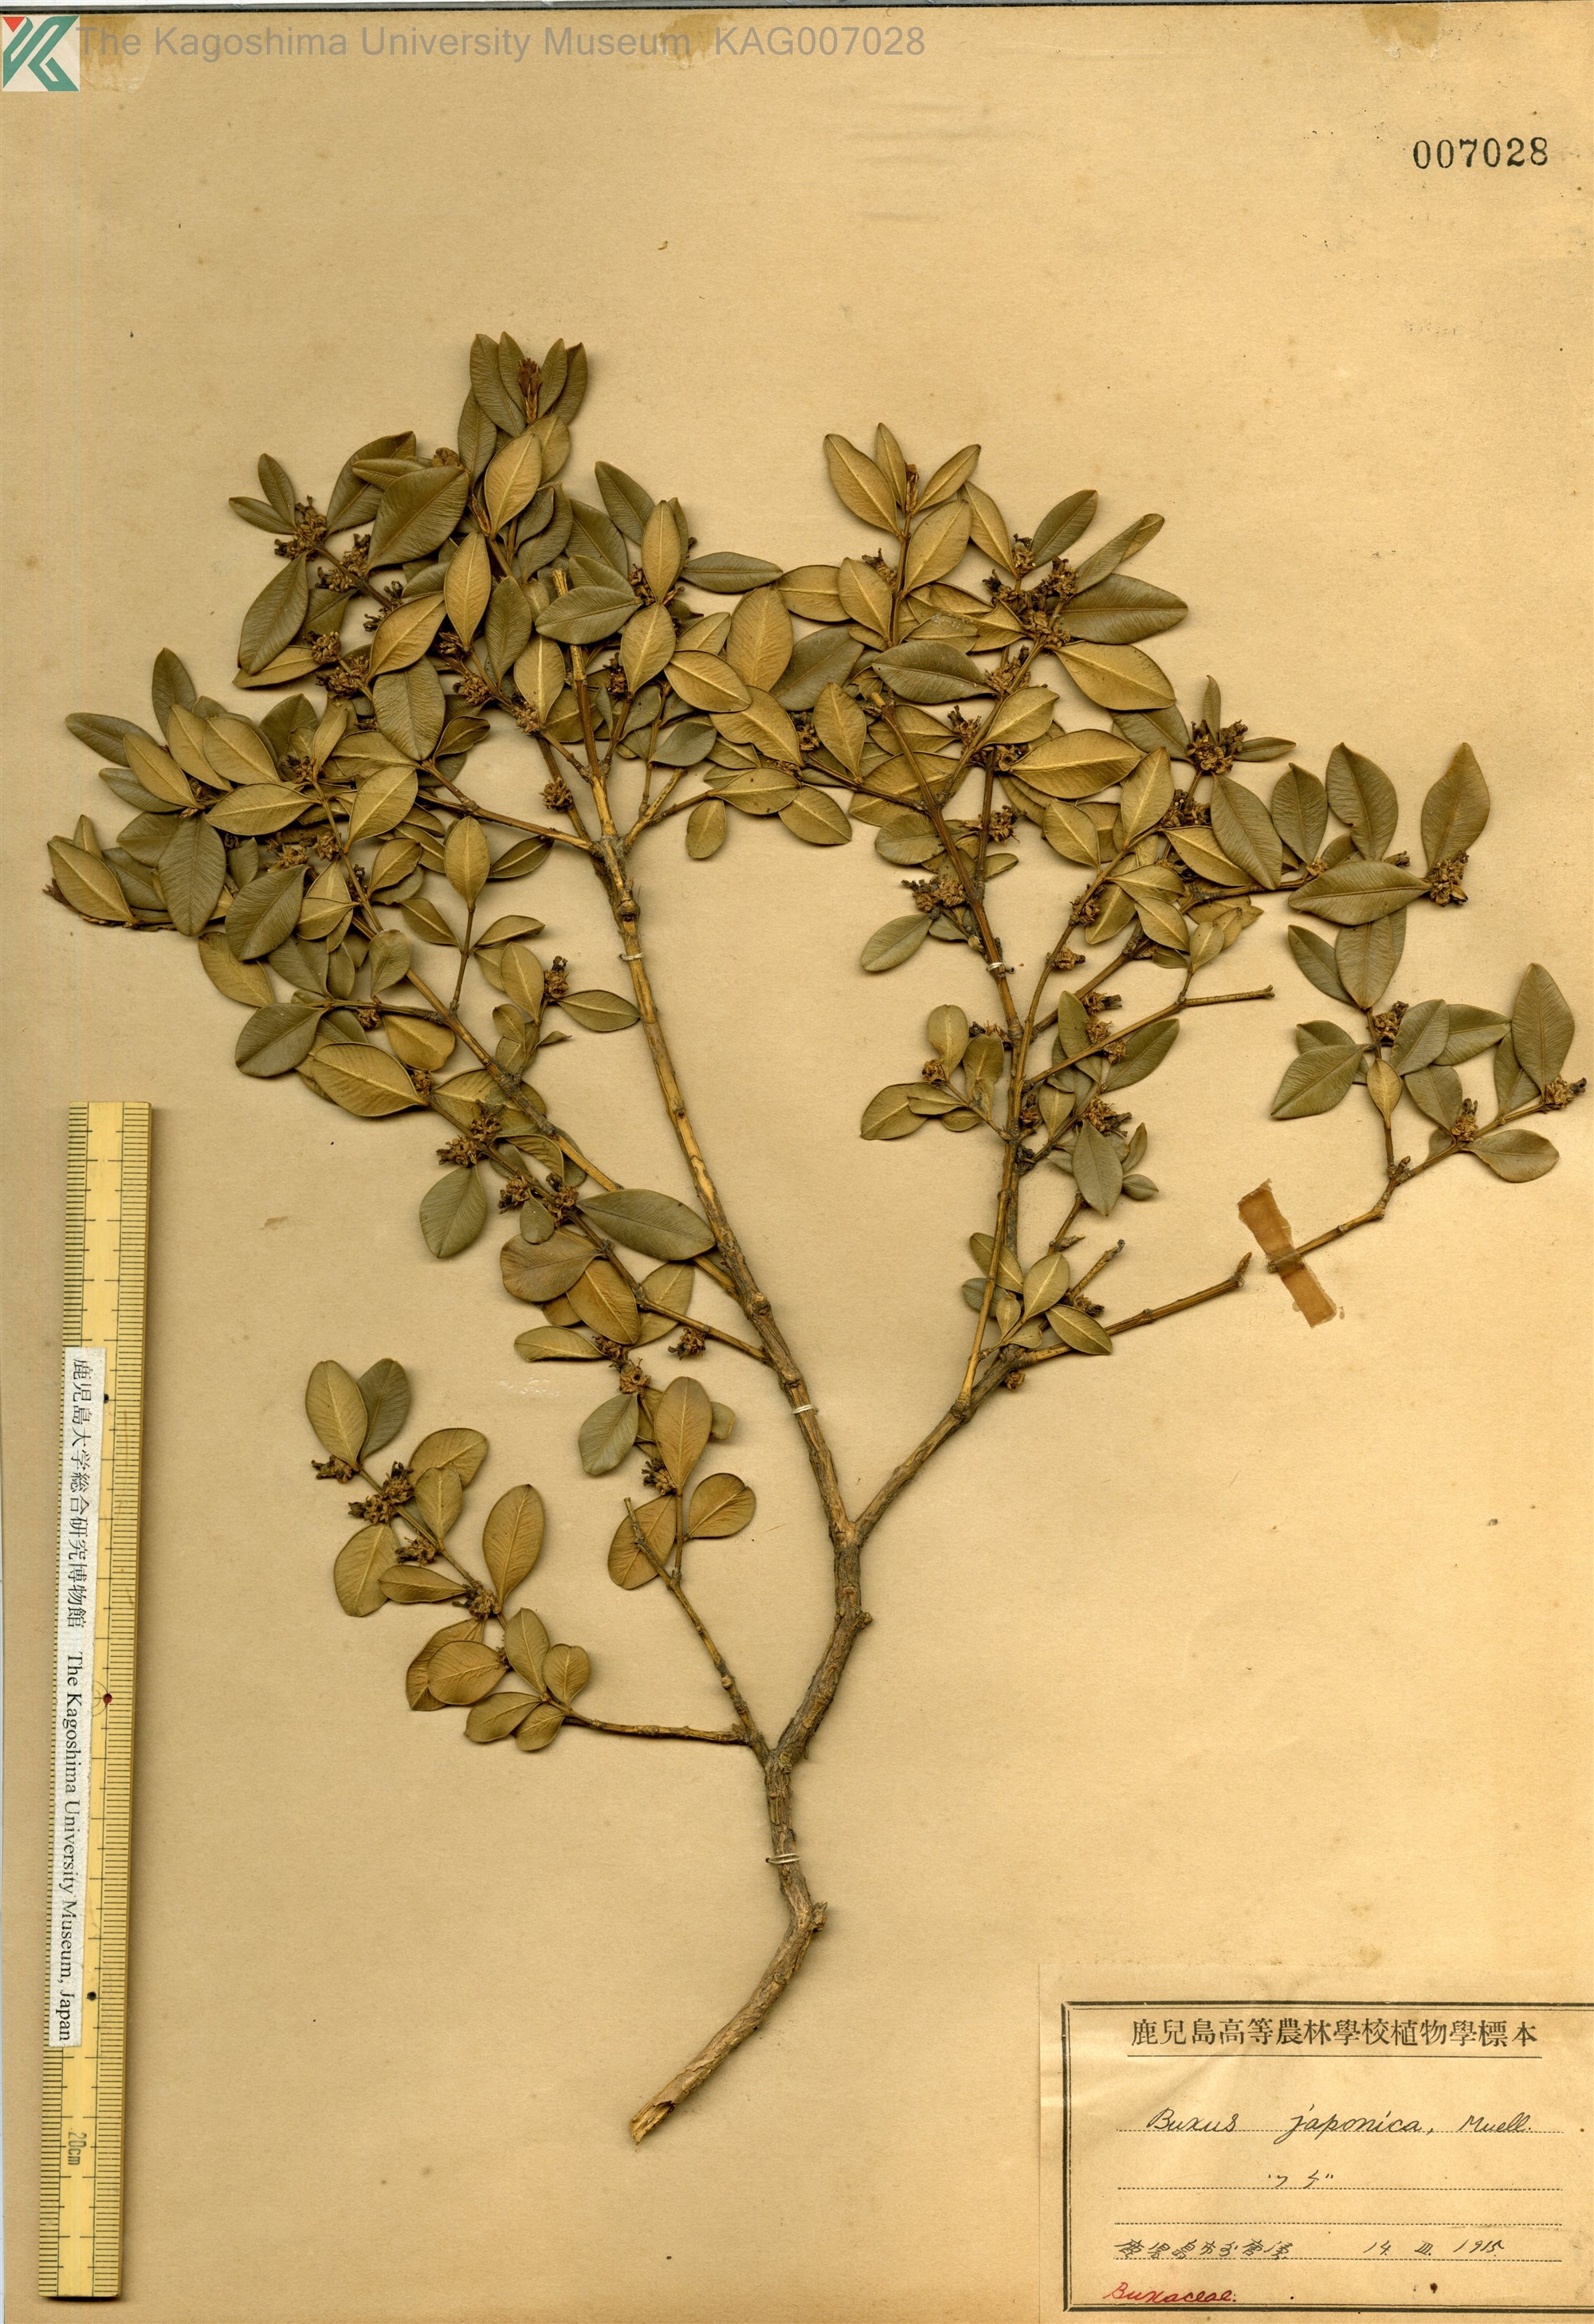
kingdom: Plantae
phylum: Tracheophyta
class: Magnoliopsida
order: Buxales
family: Buxaceae
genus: Buxus
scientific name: Buxus sinica
